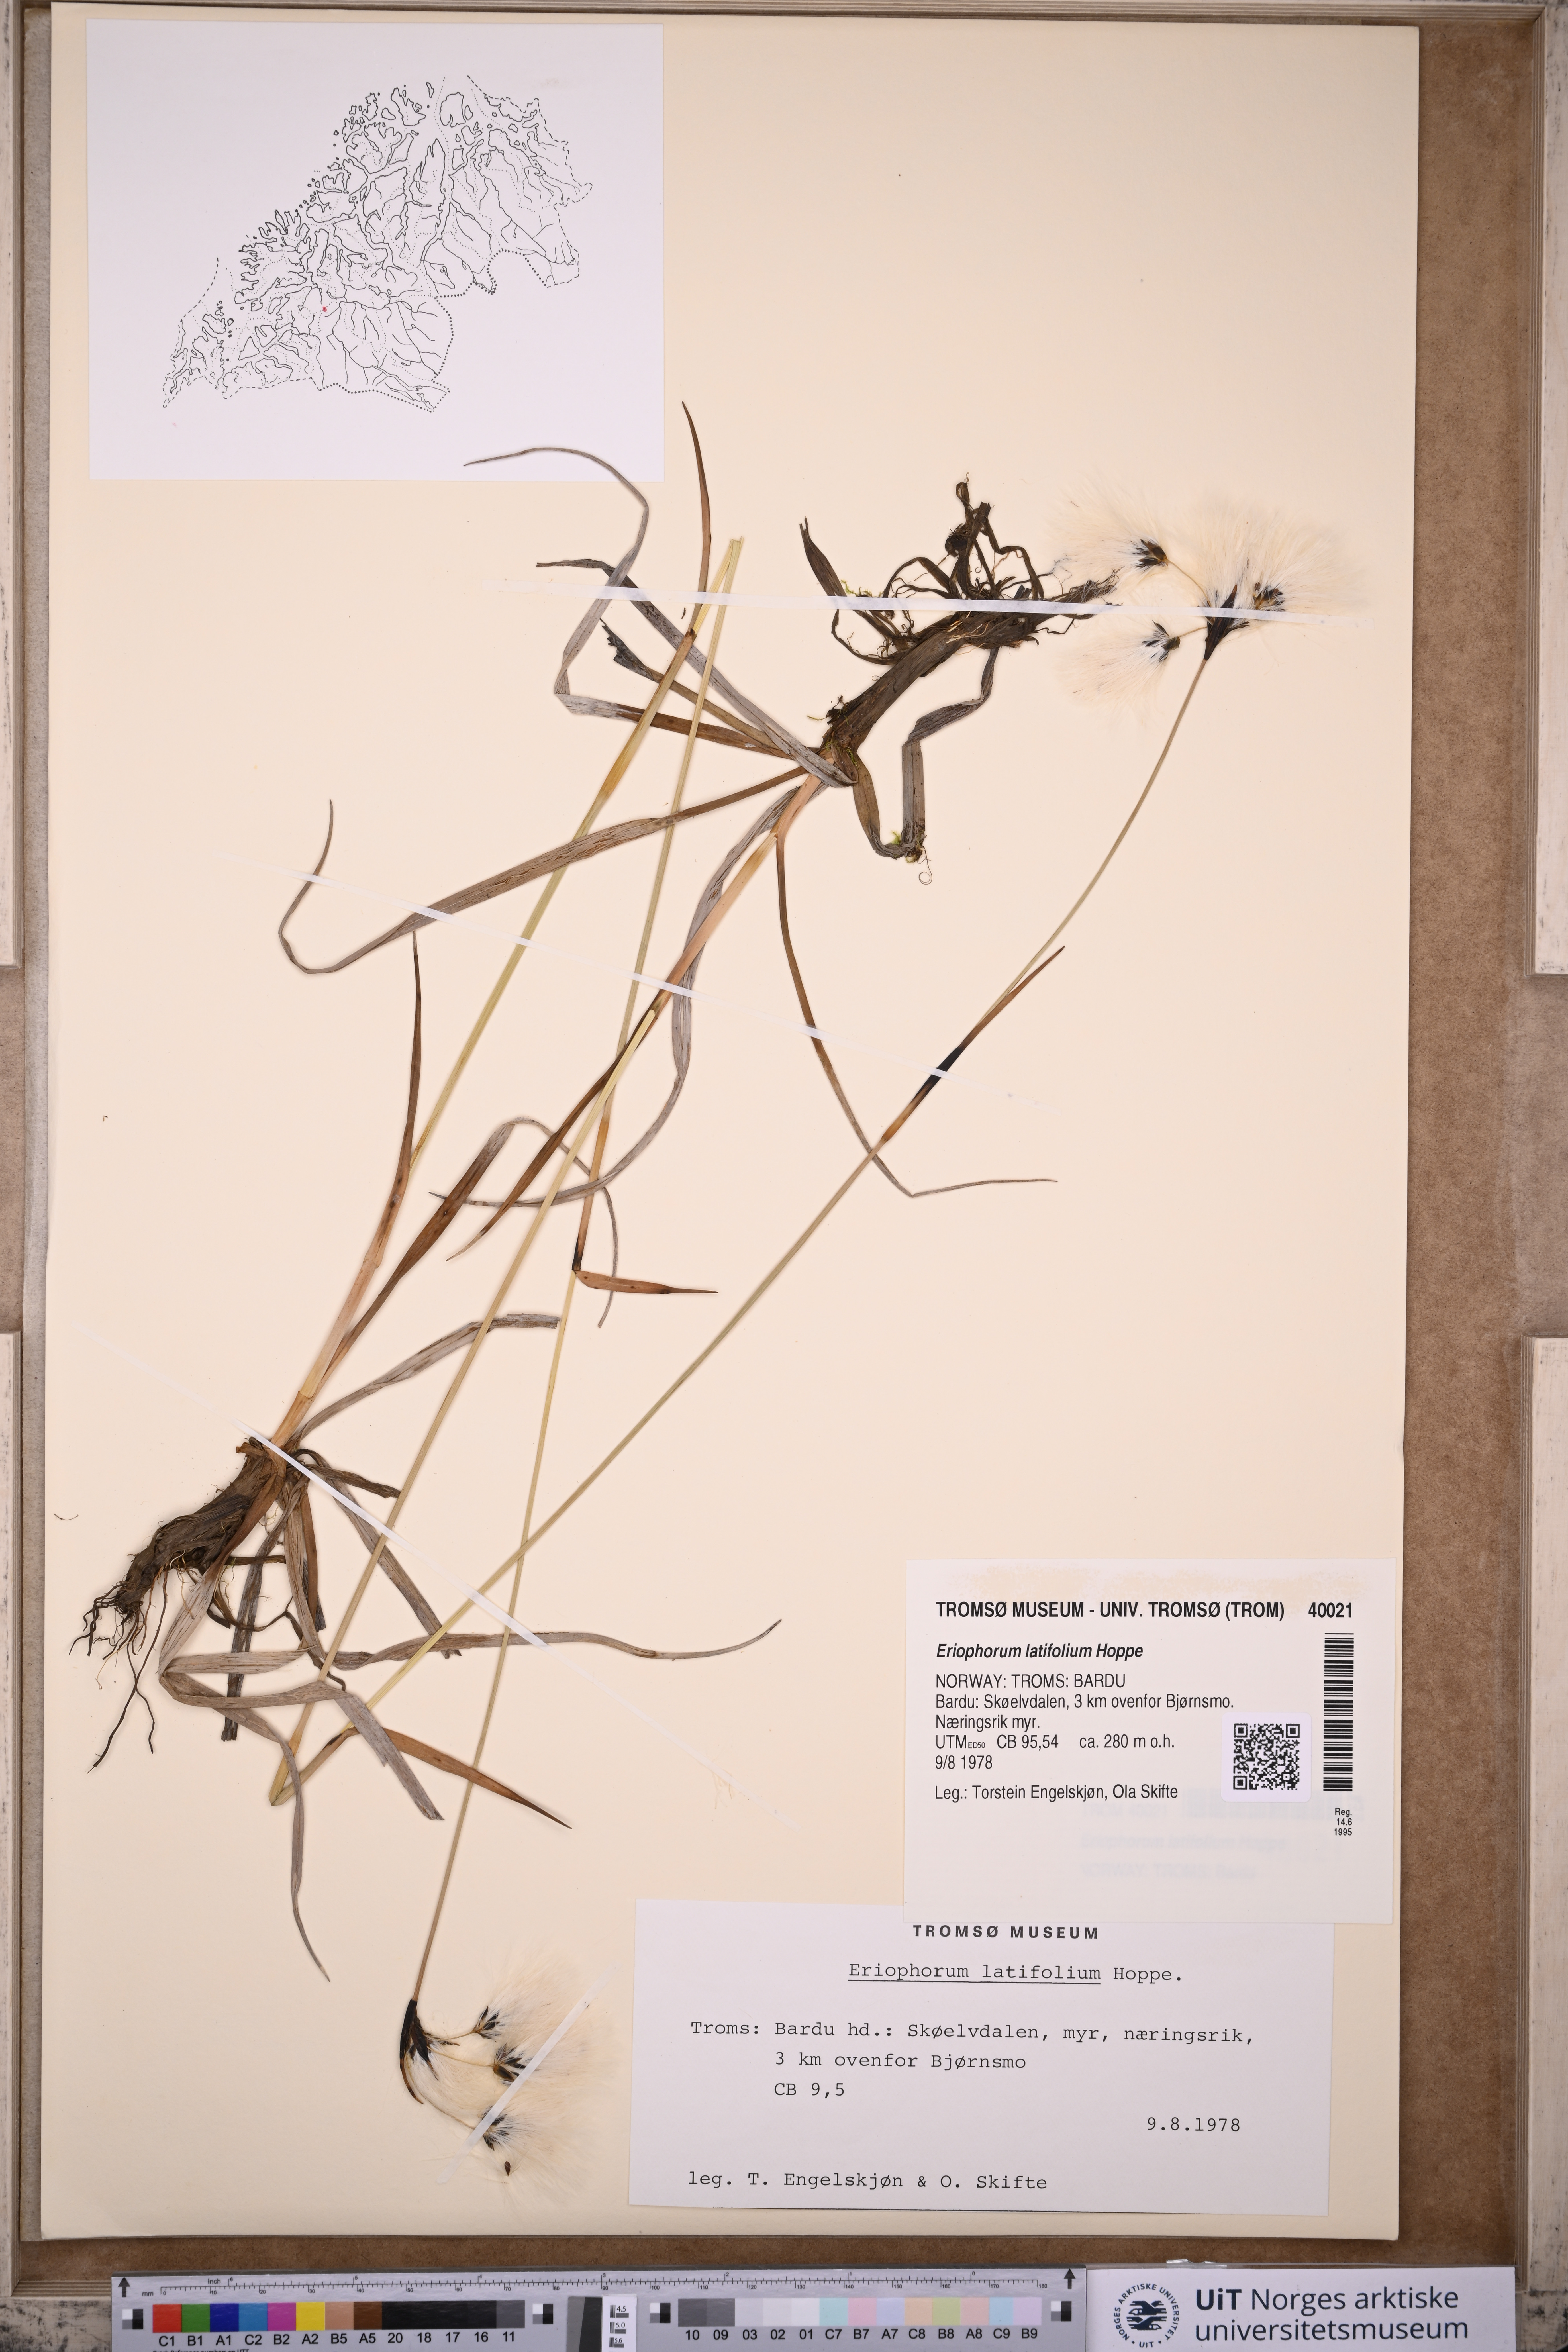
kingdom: Plantae
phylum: Tracheophyta
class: Liliopsida
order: Poales
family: Cyperaceae
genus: Eriophorum
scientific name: Eriophorum latifolium
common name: Broad-leaved cottongrass
